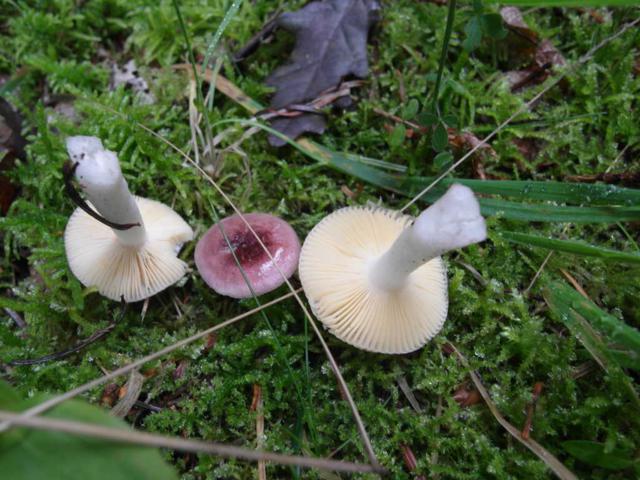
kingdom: Fungi
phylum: Basidiomycota
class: Agaricomycetes
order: Russulales
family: Russulaceae
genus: Russula
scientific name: Russula cessans
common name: fyrre-skørhat
